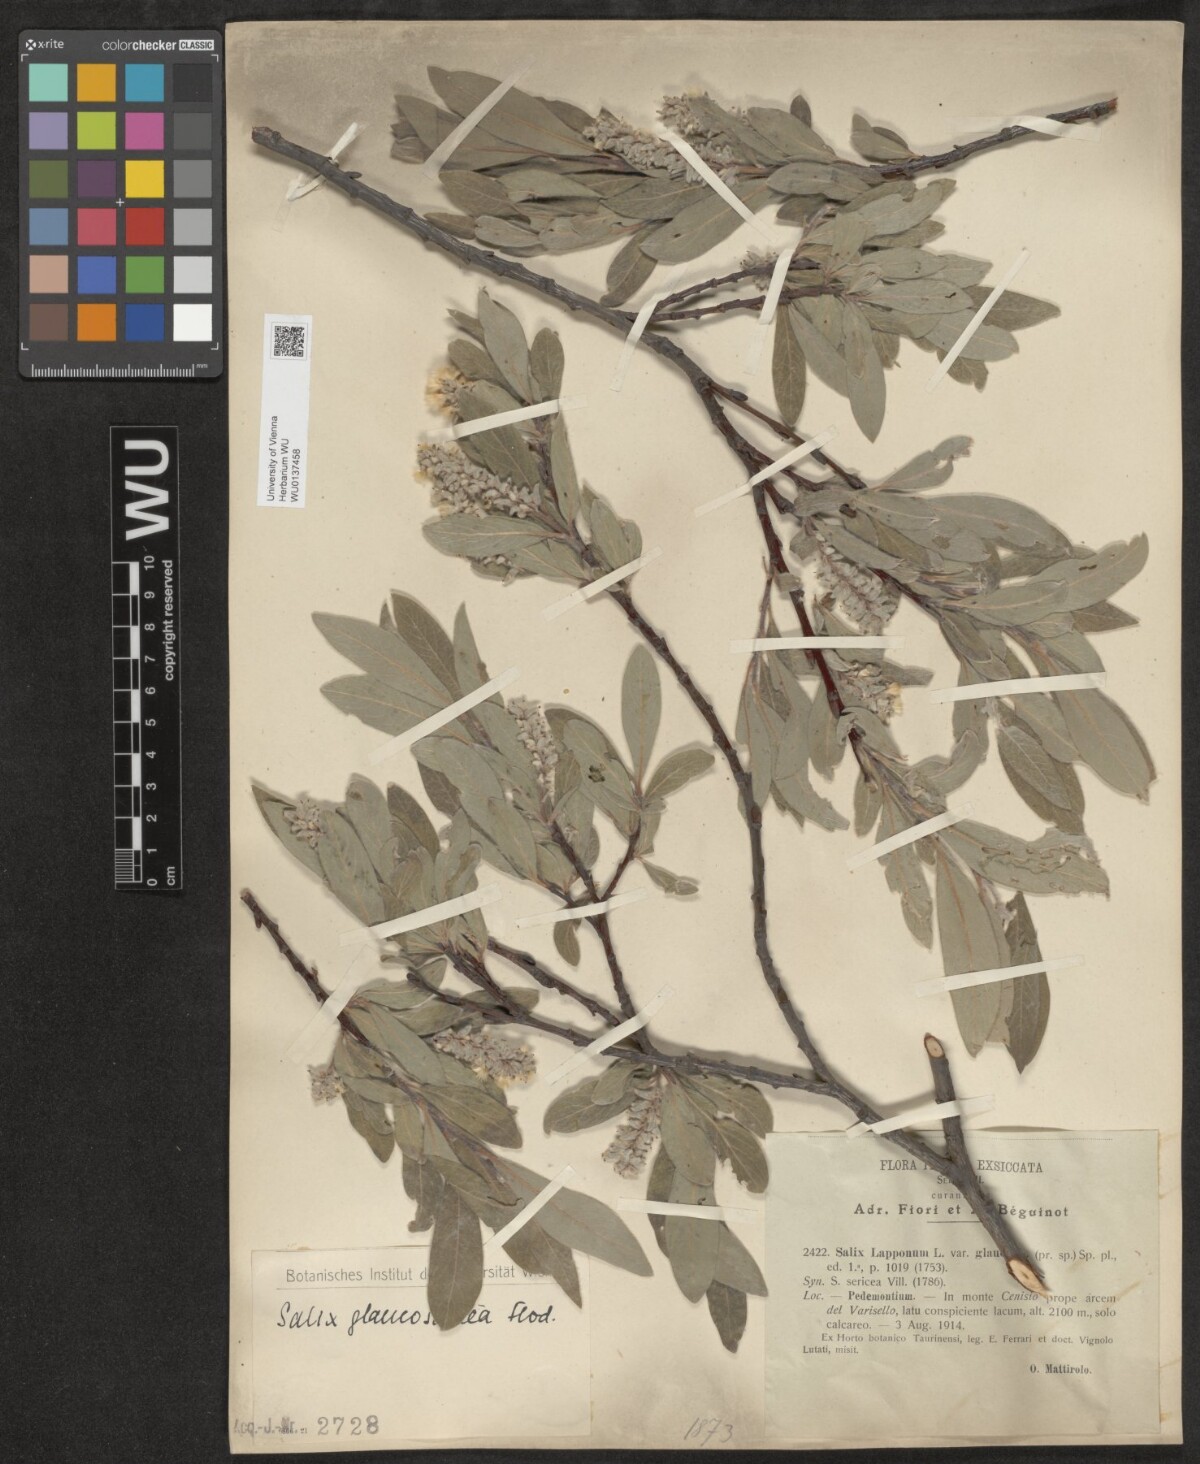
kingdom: Plantae
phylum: Tracheophyta
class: Magnoliopsida
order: Malpighiales
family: Salicaceae
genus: Salix
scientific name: Salix glaucosericea
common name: Alpine gray willow
